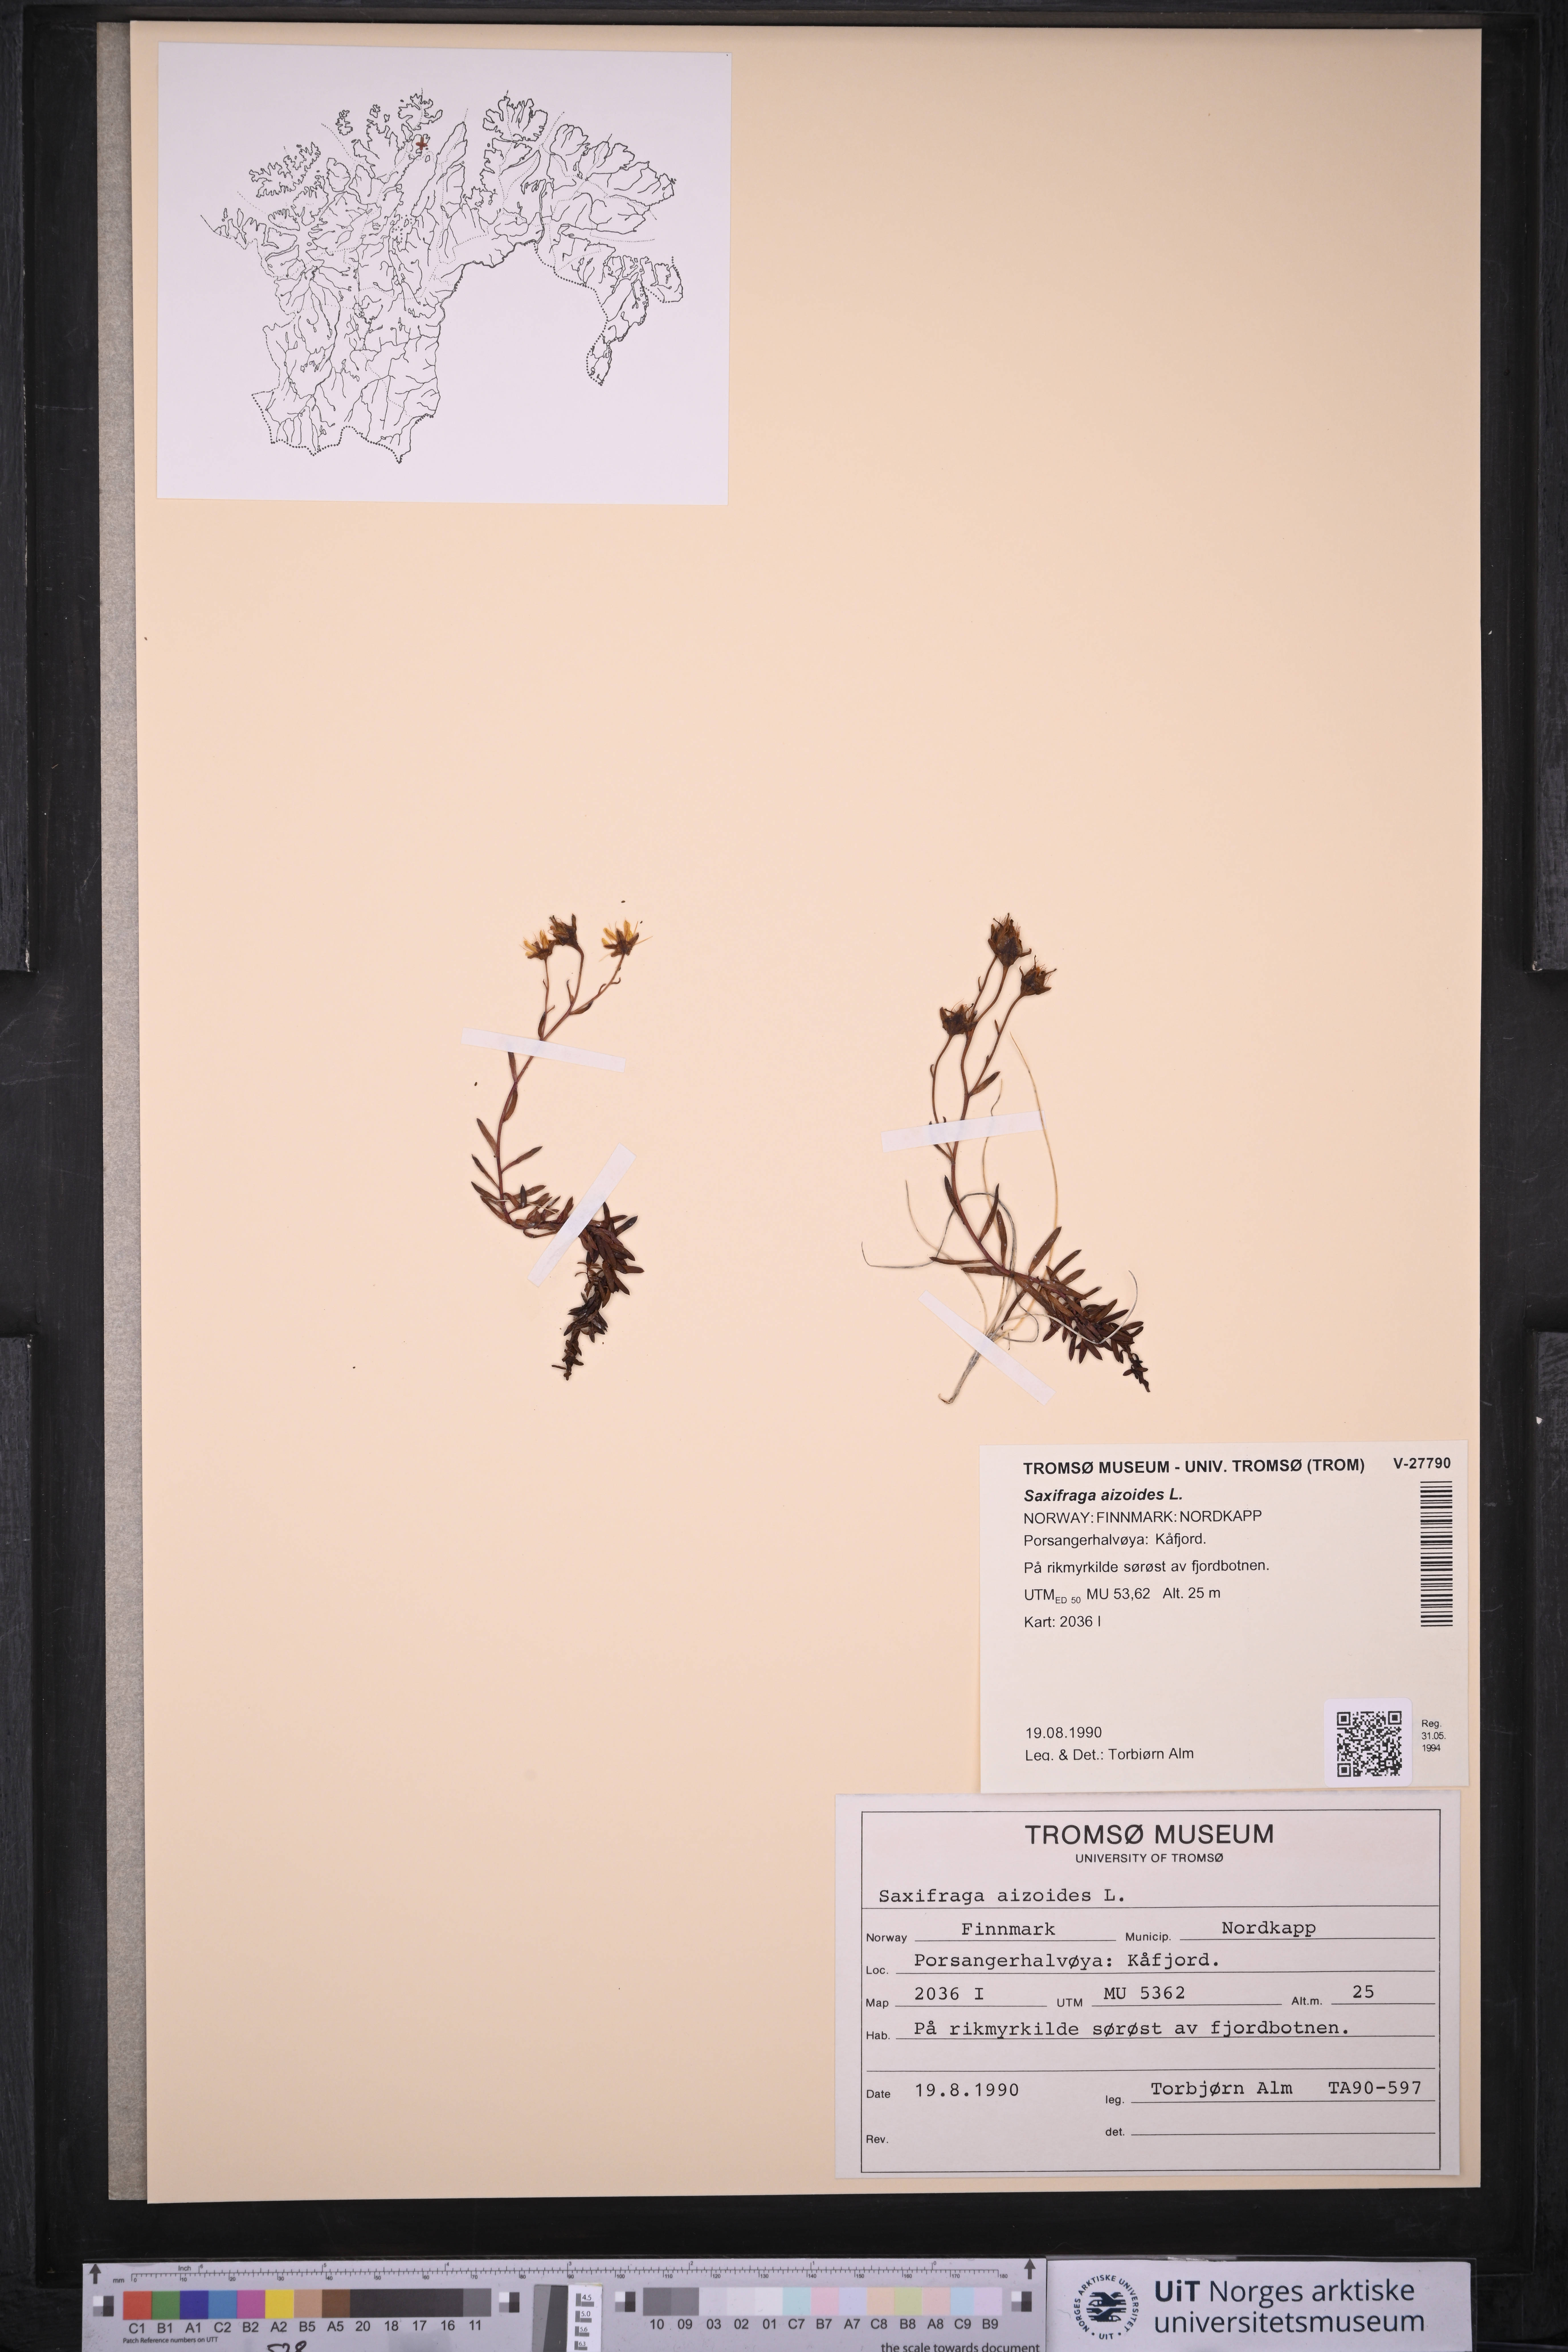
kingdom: Plantae
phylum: Tracheophyta
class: Magnoliopsida
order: Saxifragales
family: Saxifragaceae
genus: Saxifraga
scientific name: Saxifraga aizoides
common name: Yellow mountain saxifrage
